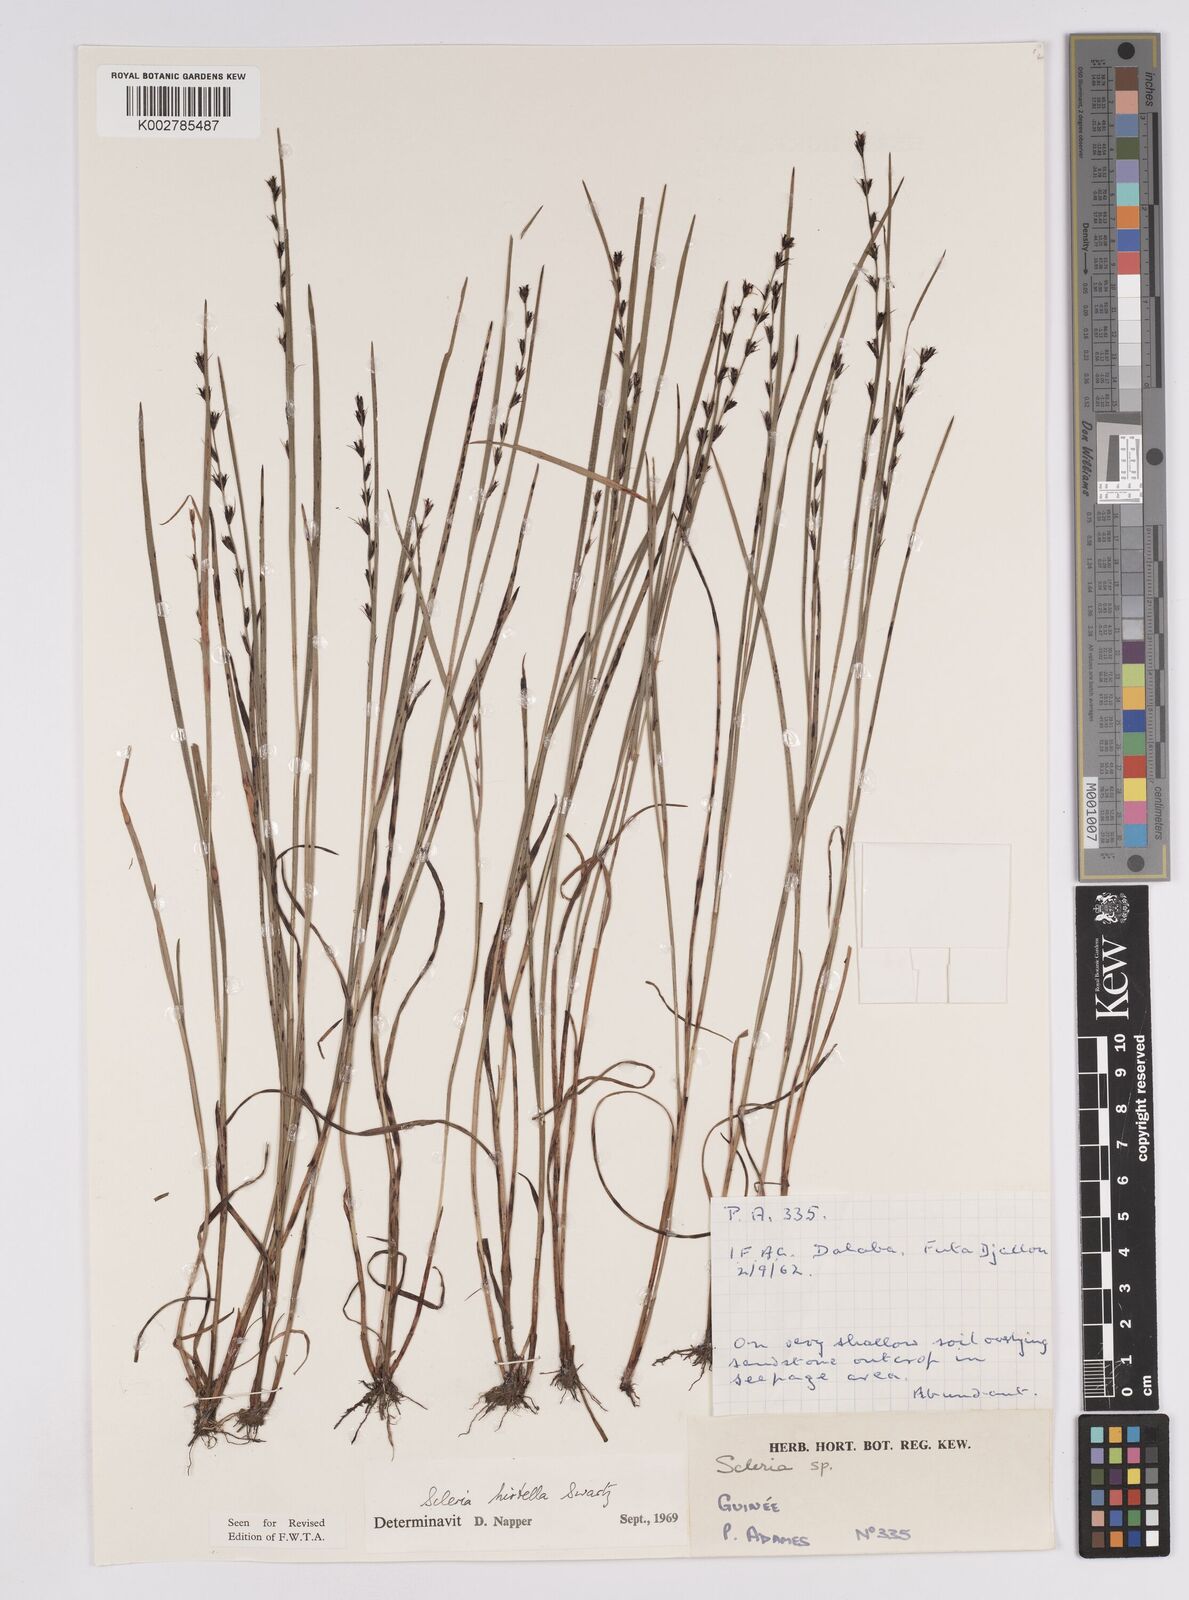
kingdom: Plantae
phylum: Tracheophyta
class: Liliopsida
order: Poales
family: Cyperaceae
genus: Scleria
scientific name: Scleria tricholepis
